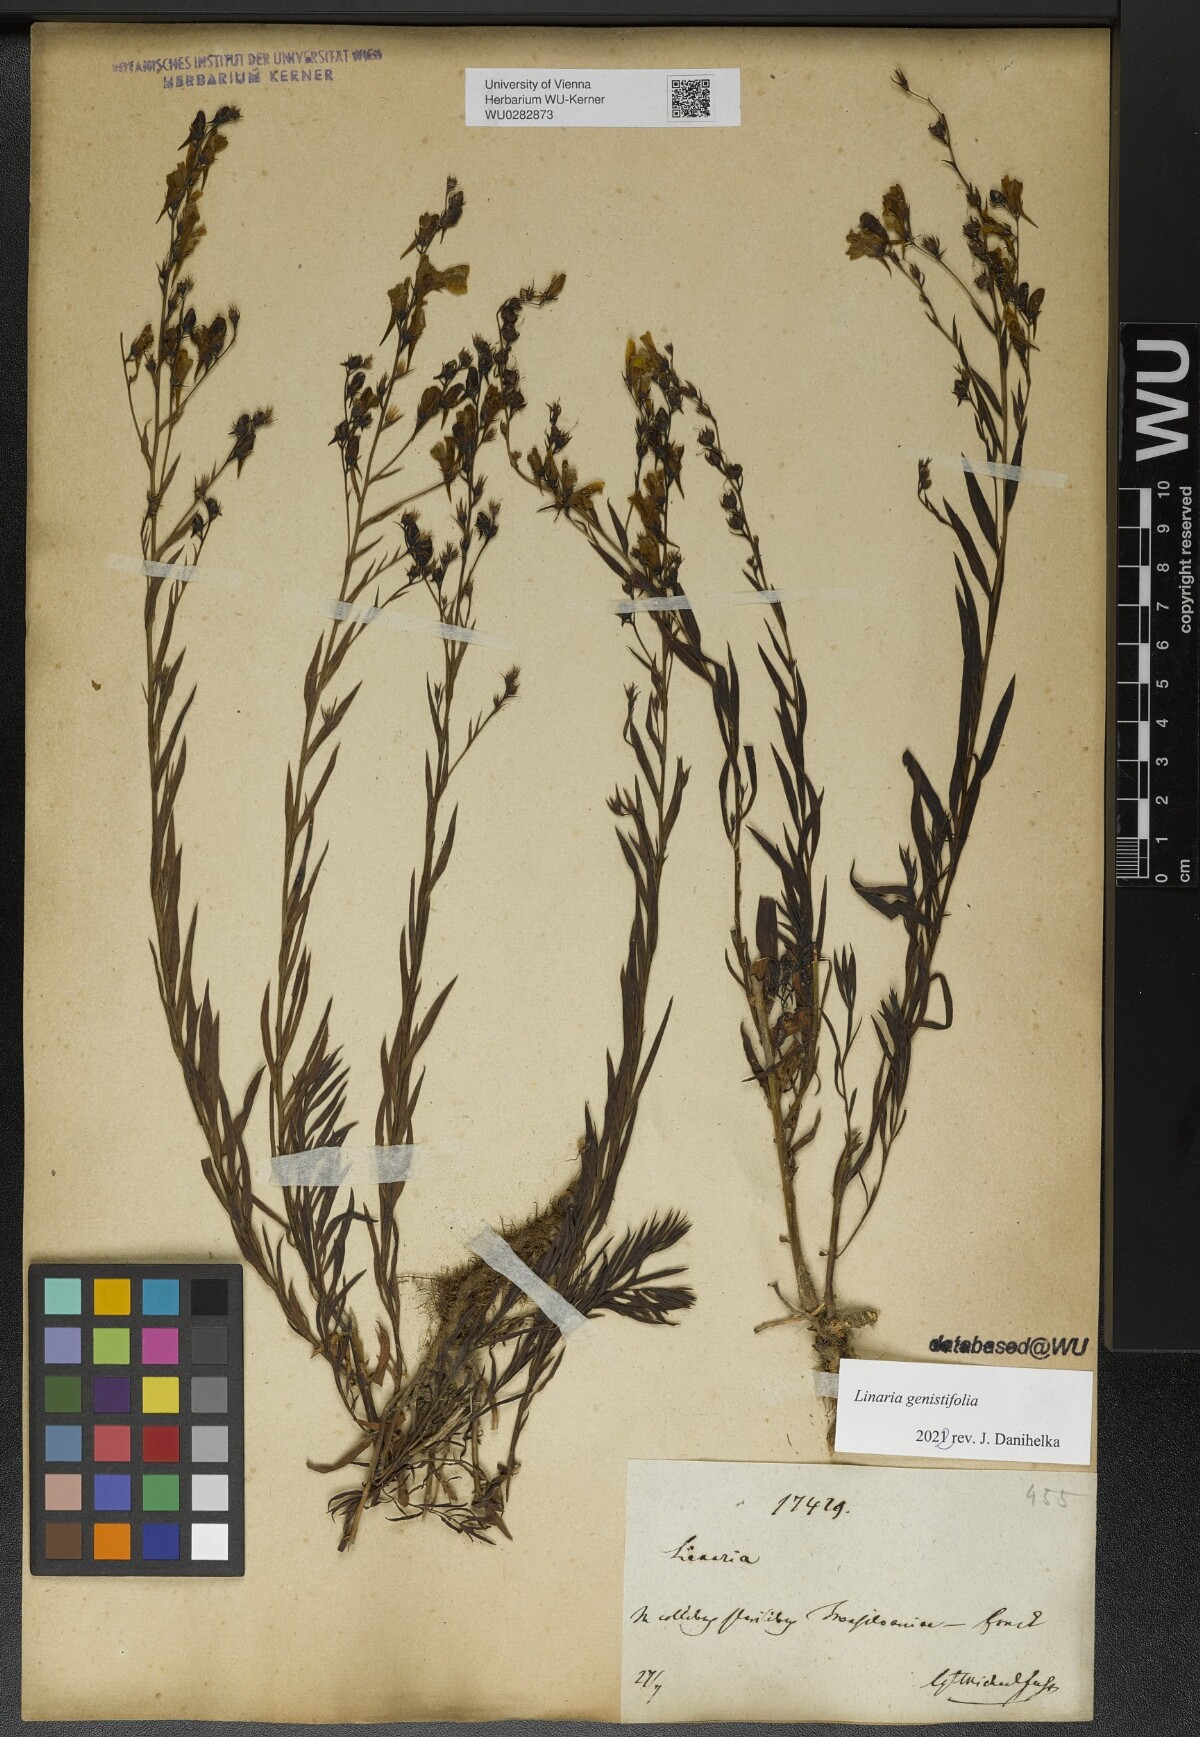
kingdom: Plantae
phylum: Tracheophyta
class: Magnoliopsida
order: Lamiales
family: Plantaginaceae
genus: Linaria
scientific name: Linaria genistifolia
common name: Broomleaf toadflax
